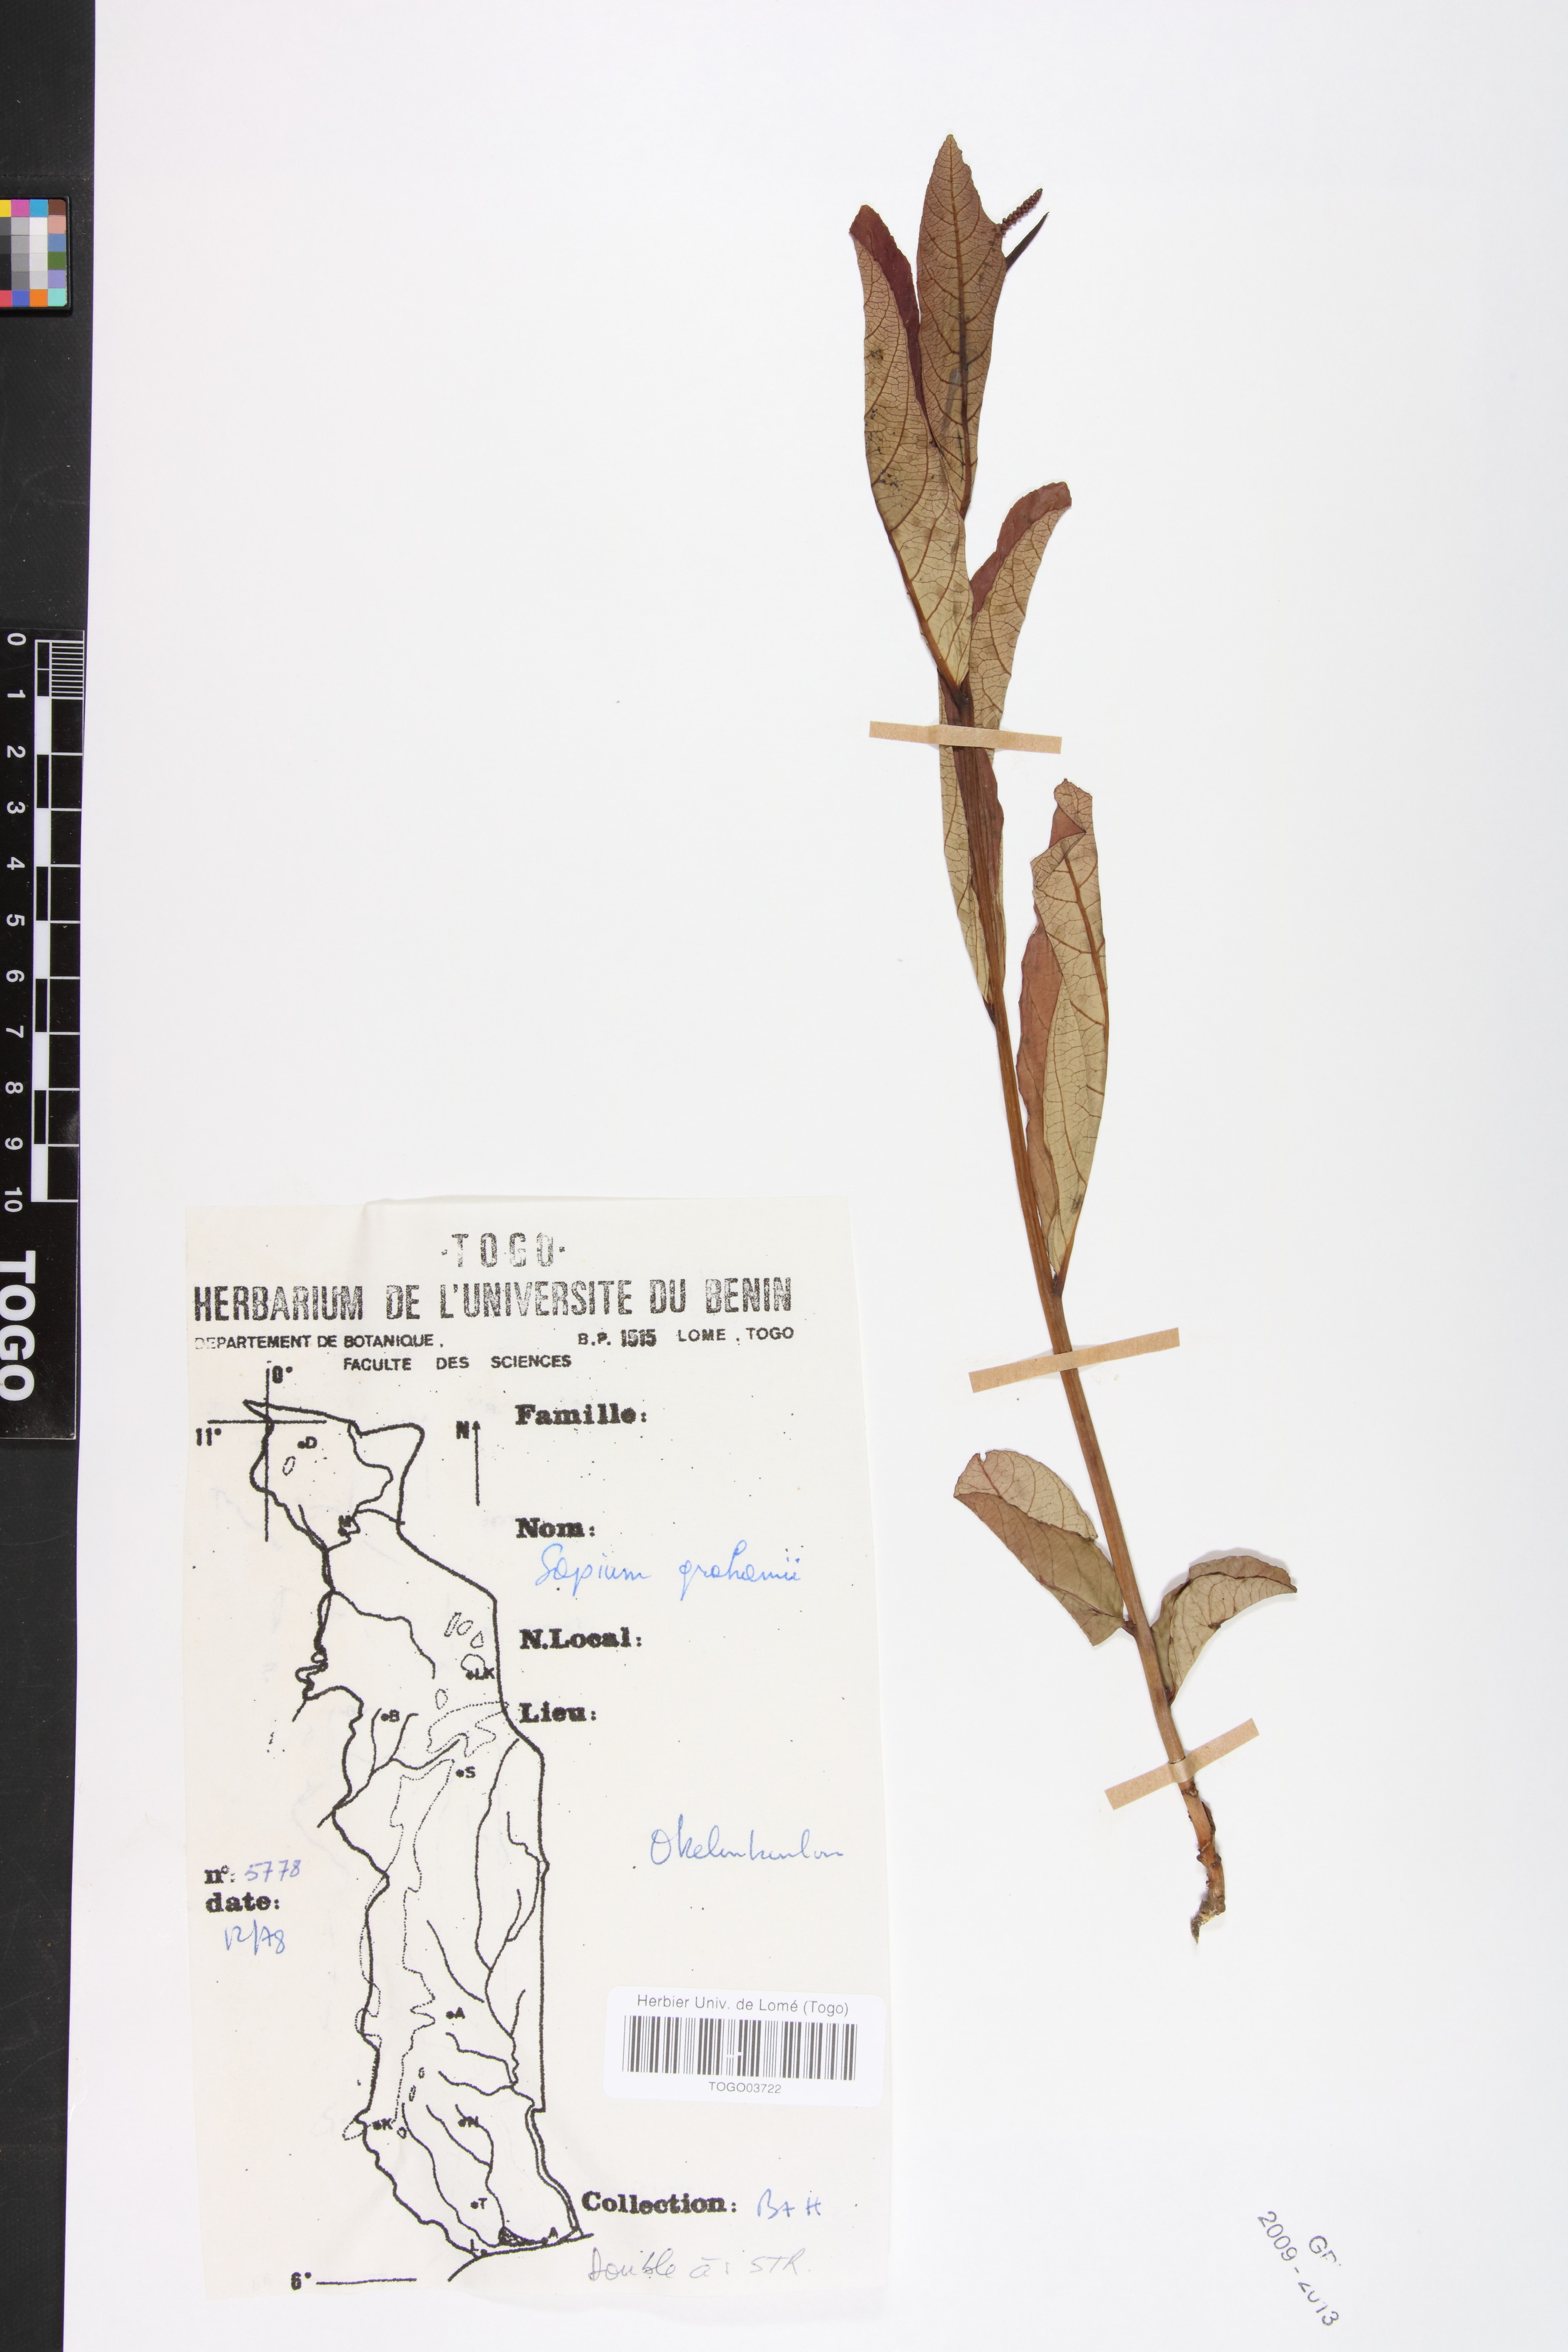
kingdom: Plantae
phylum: Tracheophyta
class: Magnoliopsida
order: Malpighiales
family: Euphorbiaceae
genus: Excoecaria
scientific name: Excoecaria grahamii
